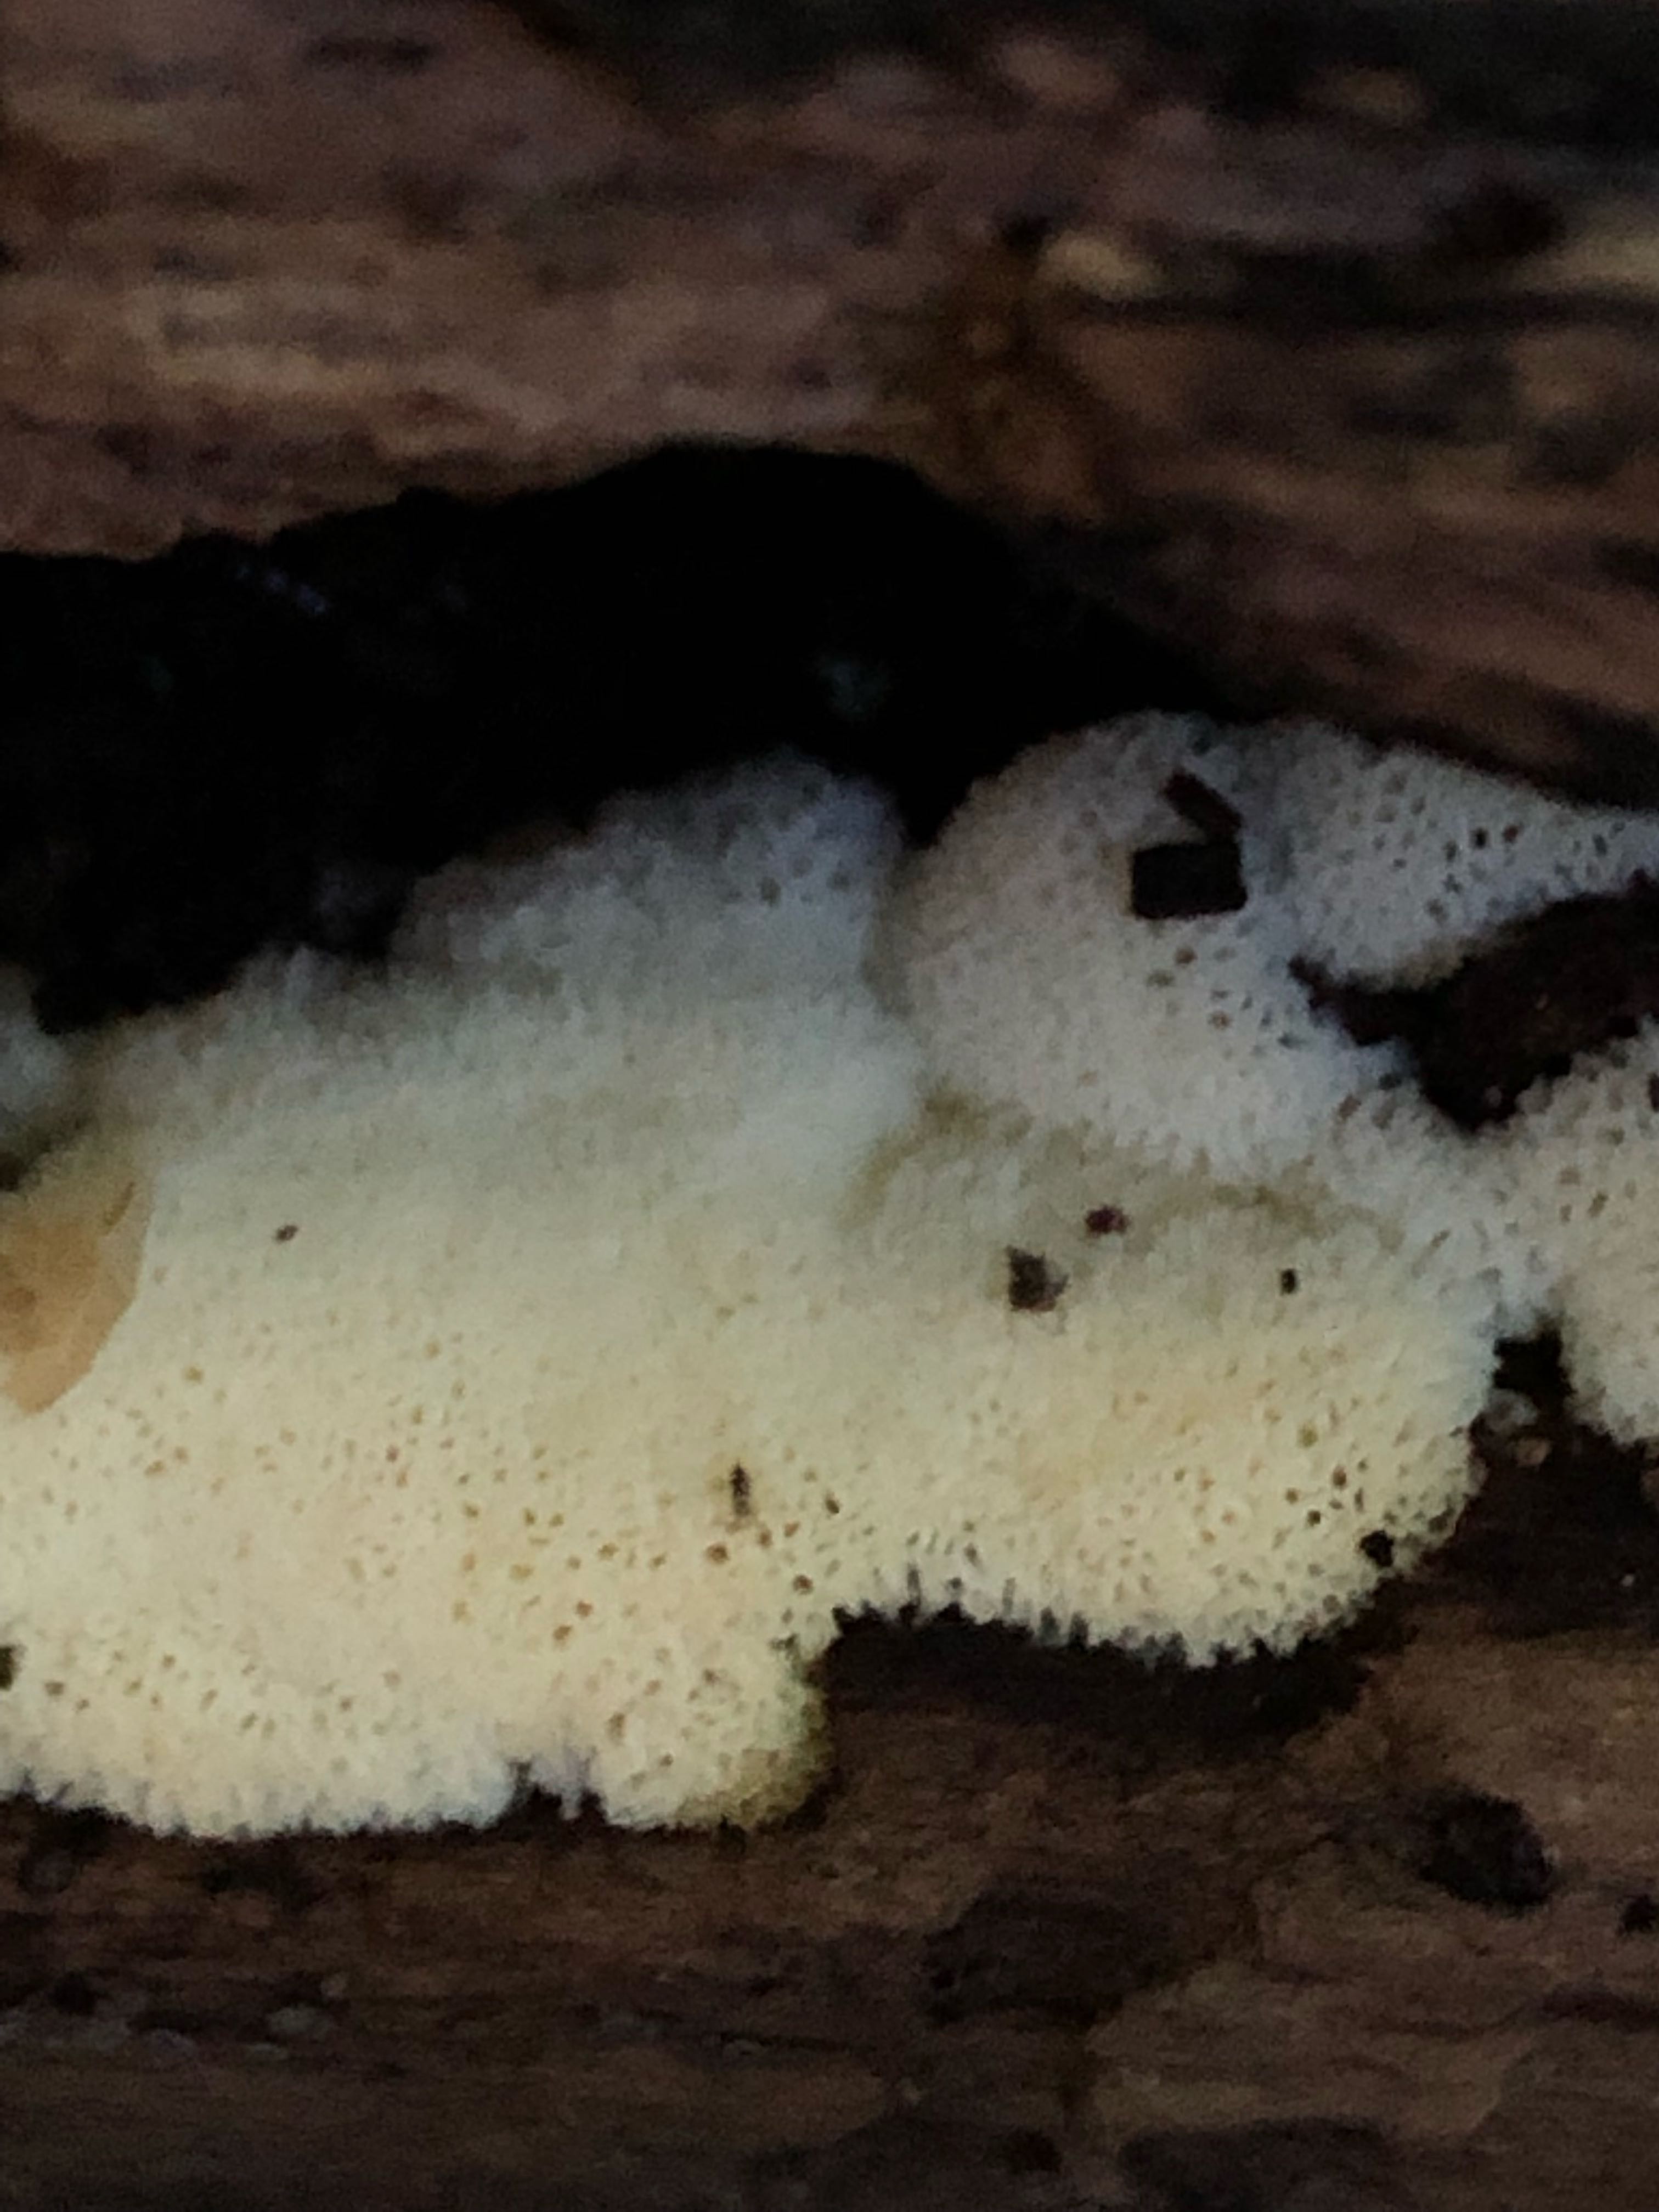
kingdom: Protozoa
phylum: Mycetozoa
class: Protosteliomycetes
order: Ceratiomyxales
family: Ceratiomyxaceae
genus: Ceratiomyxa
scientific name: Ceratiomyxa fruticulosa
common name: Honeycomb coral slime mold
